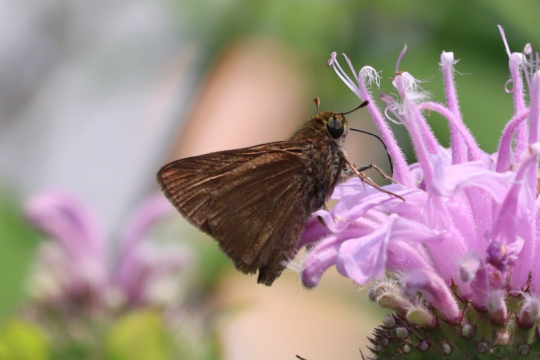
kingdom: Animalia
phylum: Arthropoda
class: Insecta
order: Lepidoptera
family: Hesperiidae
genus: Euphyes
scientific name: Euphyes vestris
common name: Dun Skipper
